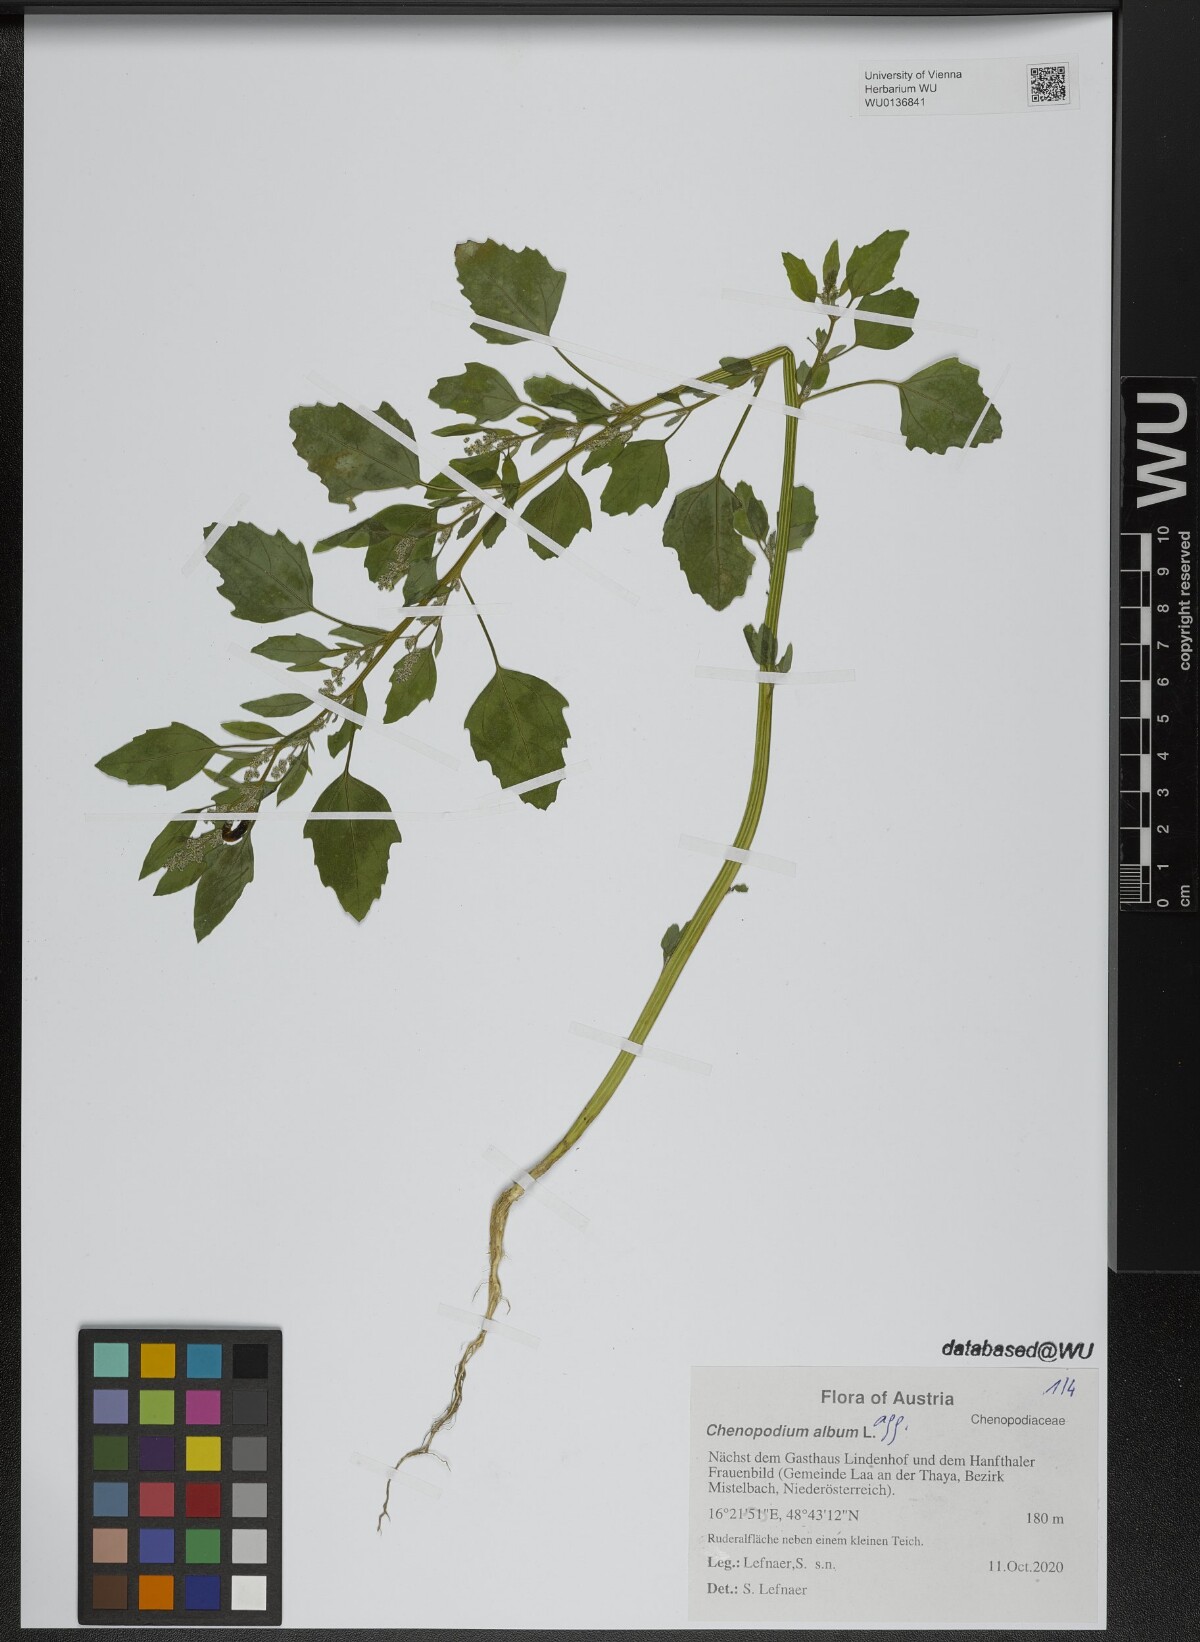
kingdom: Plantae
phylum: Tracheophyta
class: Magnoliopsida
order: Caryophyllales
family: Amaranthaceae
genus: Chenopodium
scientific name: Chenopodium album
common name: Fat-hen
